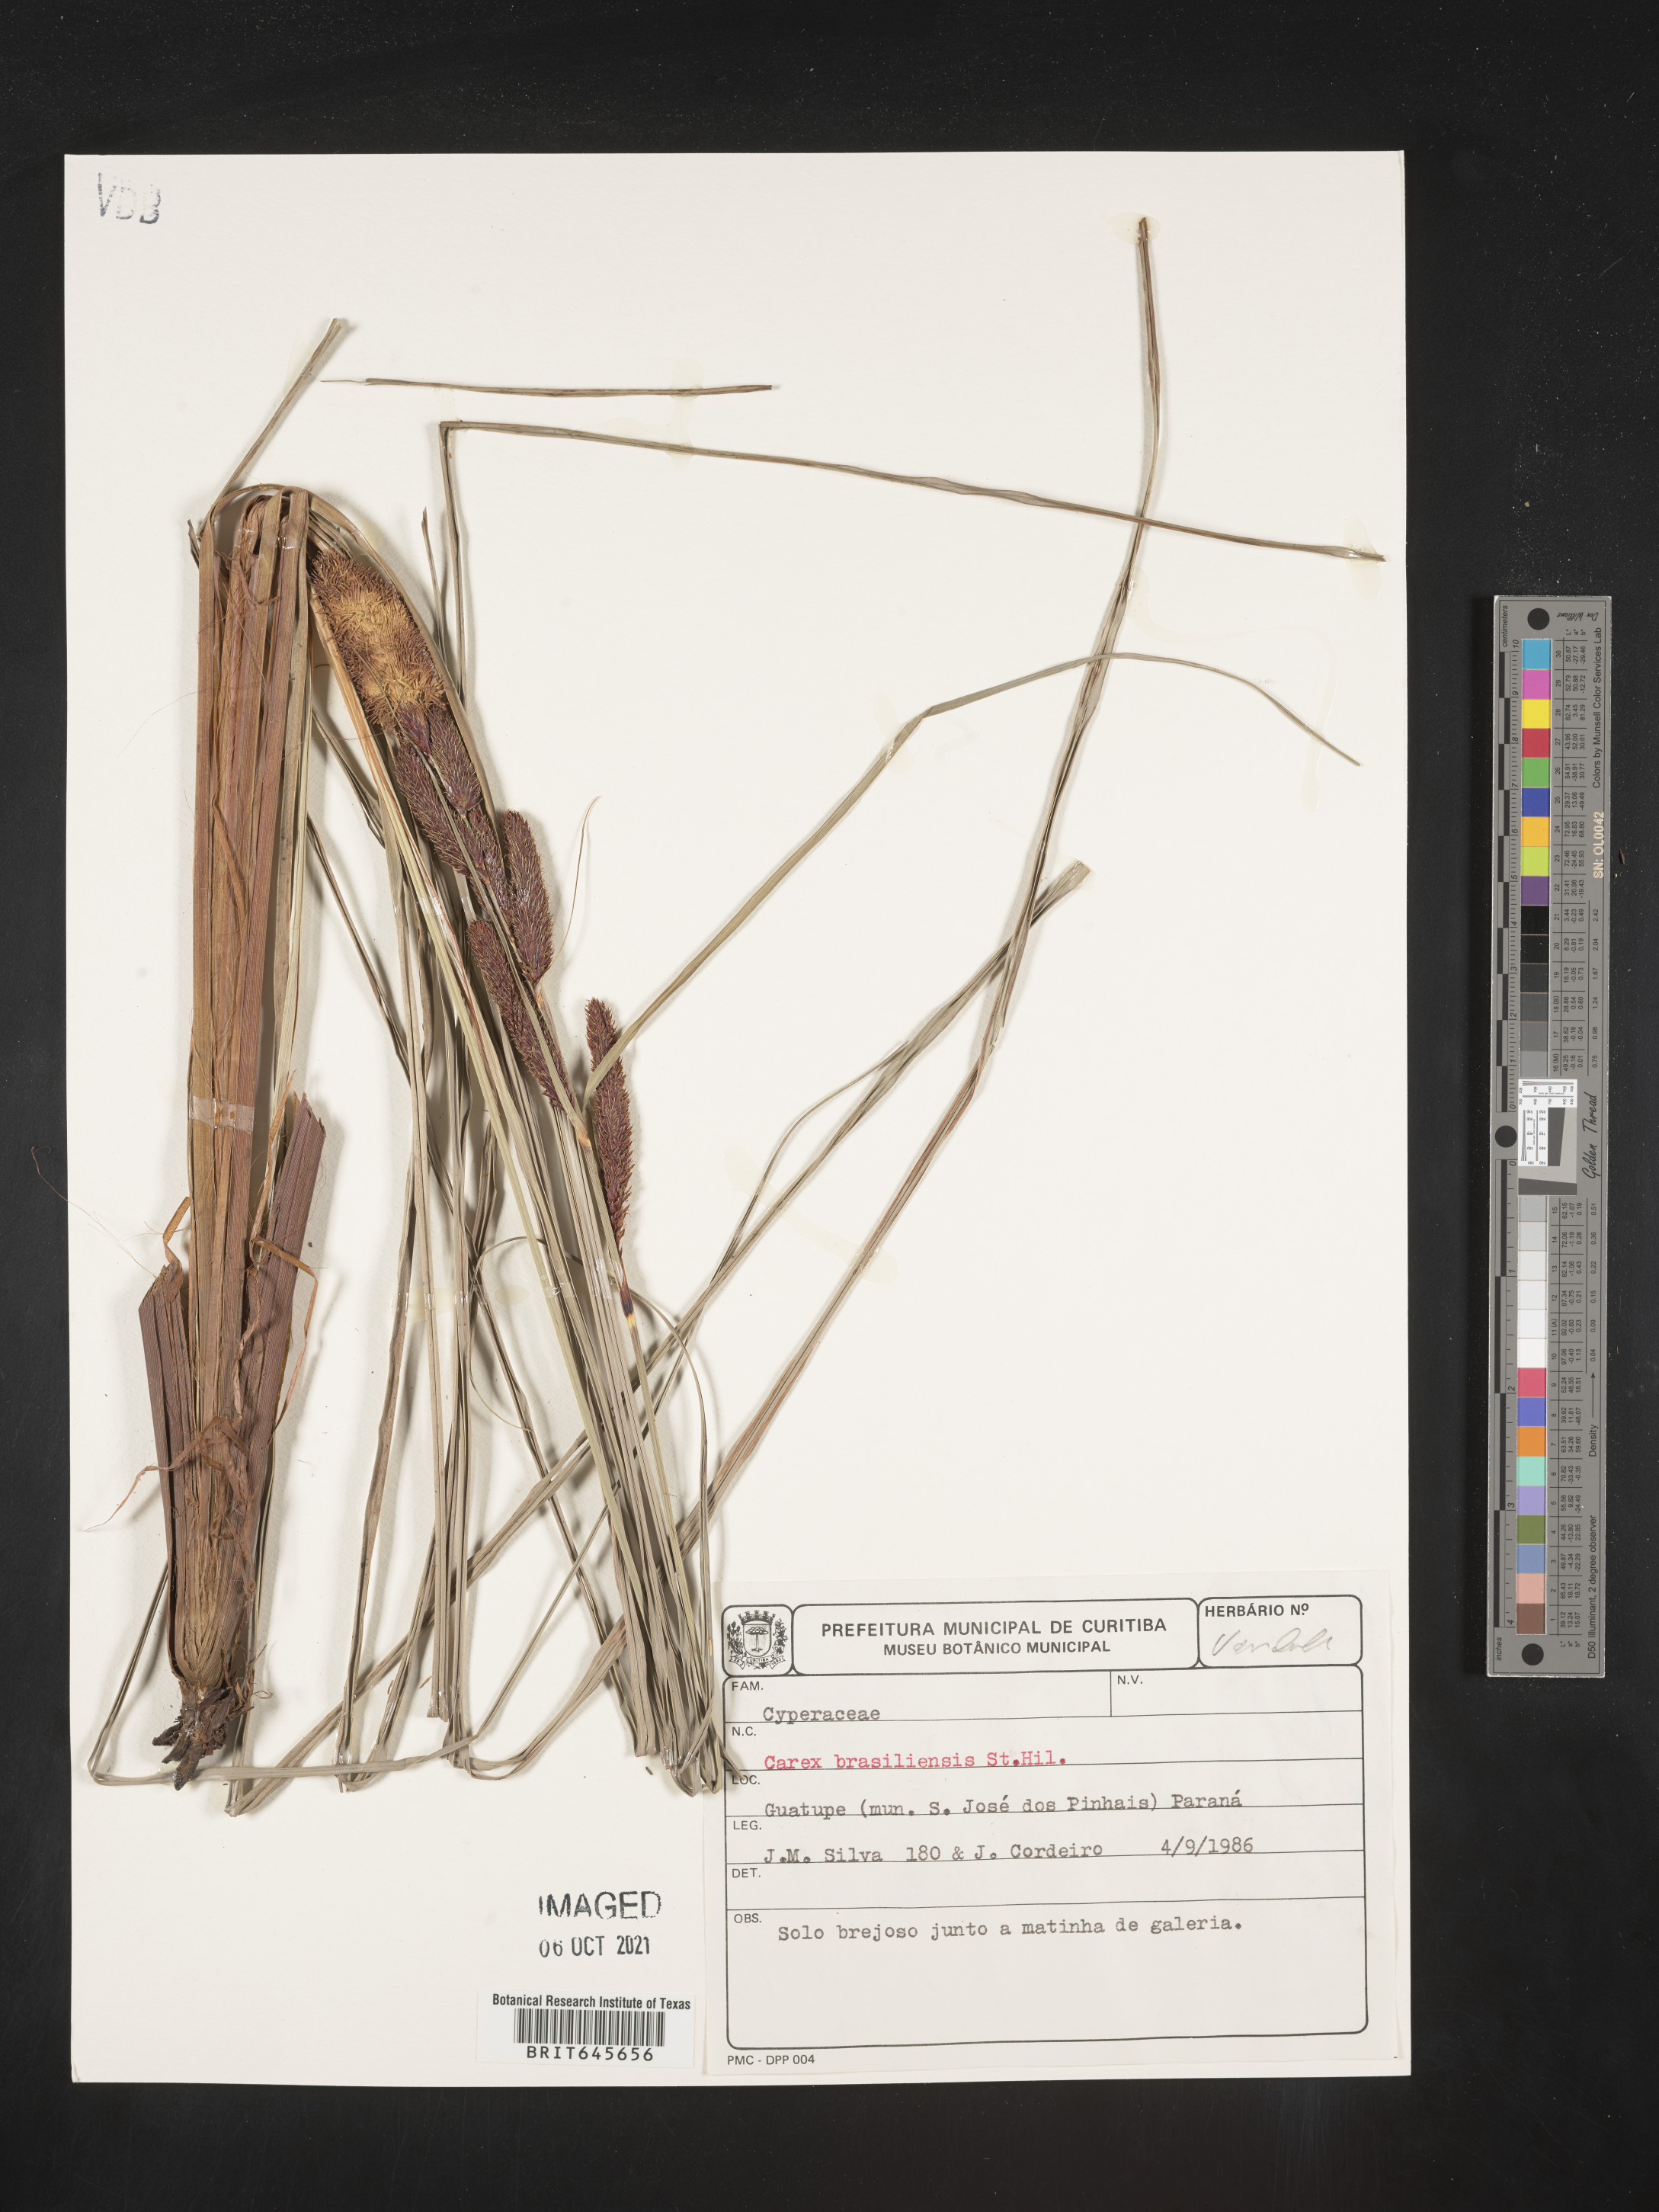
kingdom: Plantae
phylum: Tracheophyta
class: Liliopsida
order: Poales
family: Cyperaceae
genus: Carex
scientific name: Carex brasiliensis
